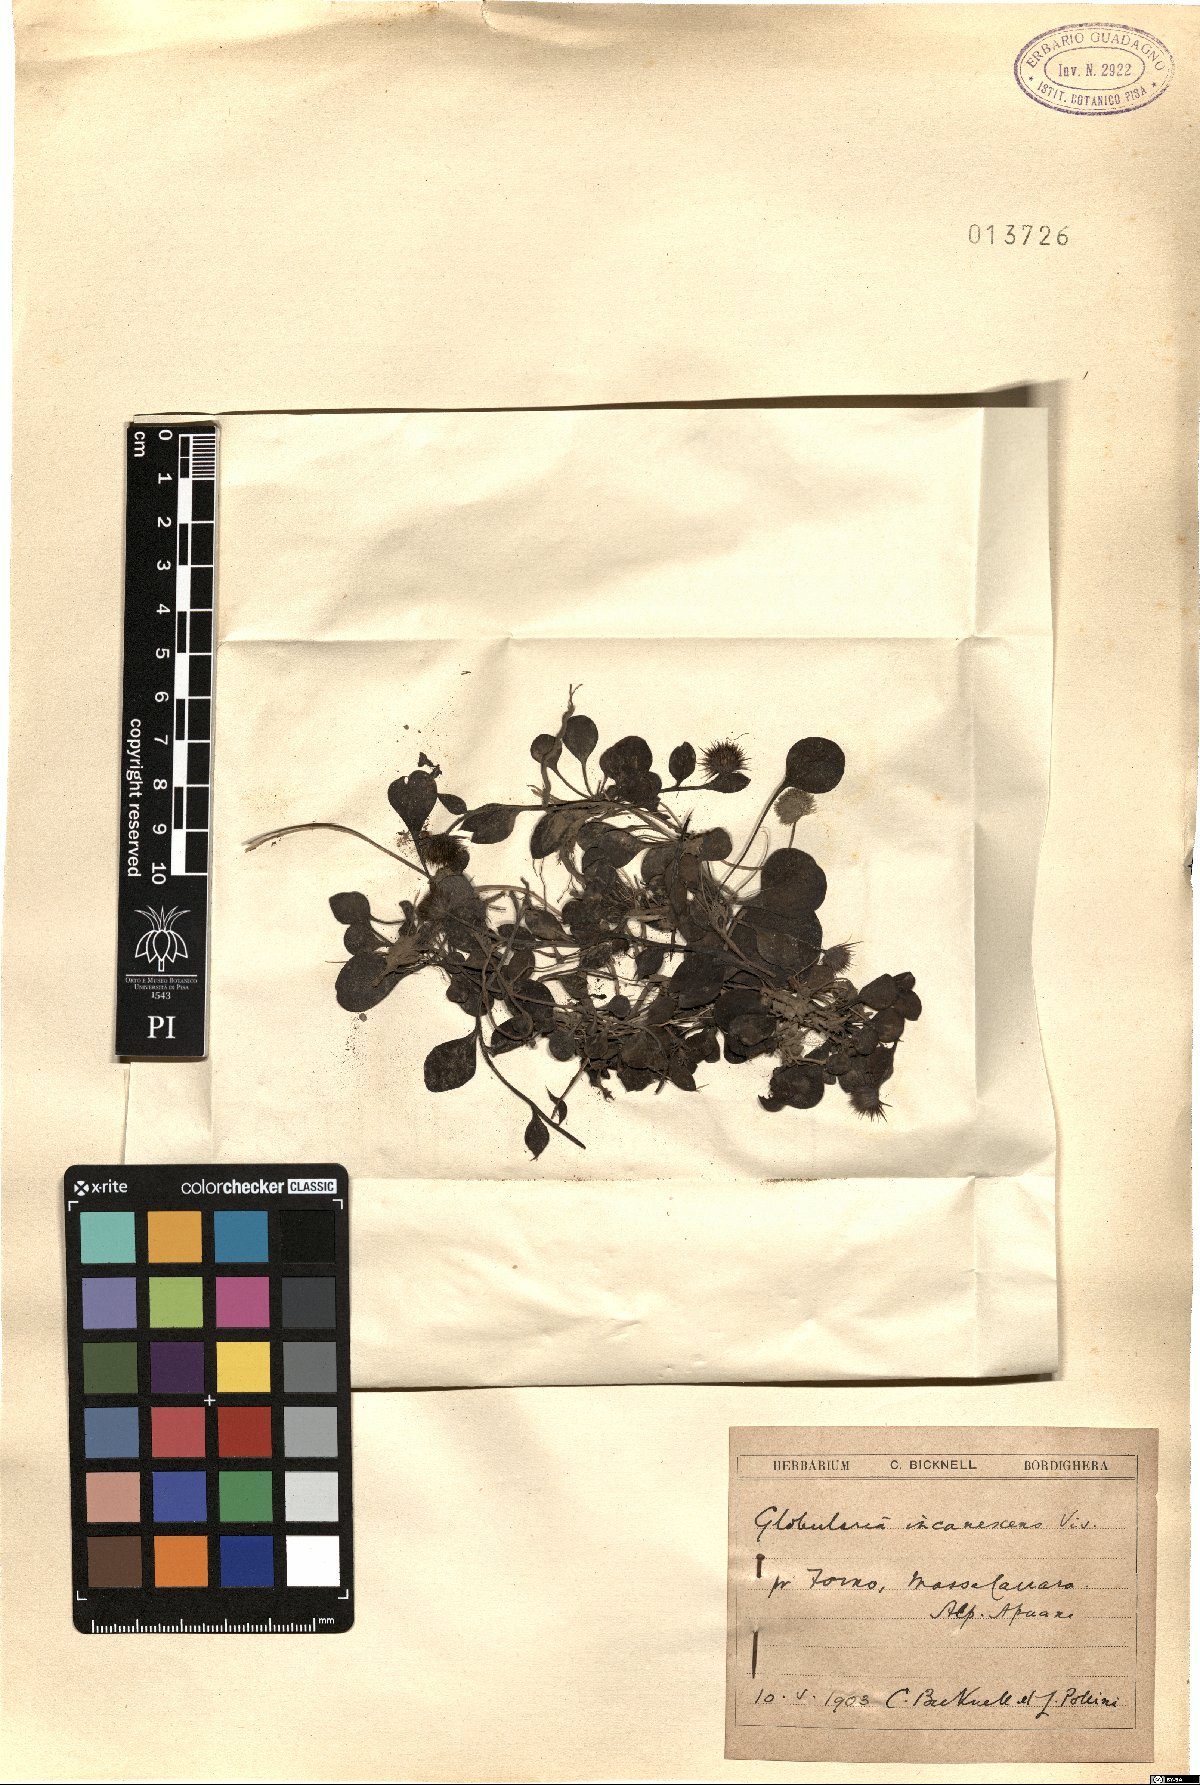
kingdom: Plantae
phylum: Tracheophyta
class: Magnoliopsida
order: Lamiales
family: Plantaginaceae
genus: Globularia
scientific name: Globularia incanescens
